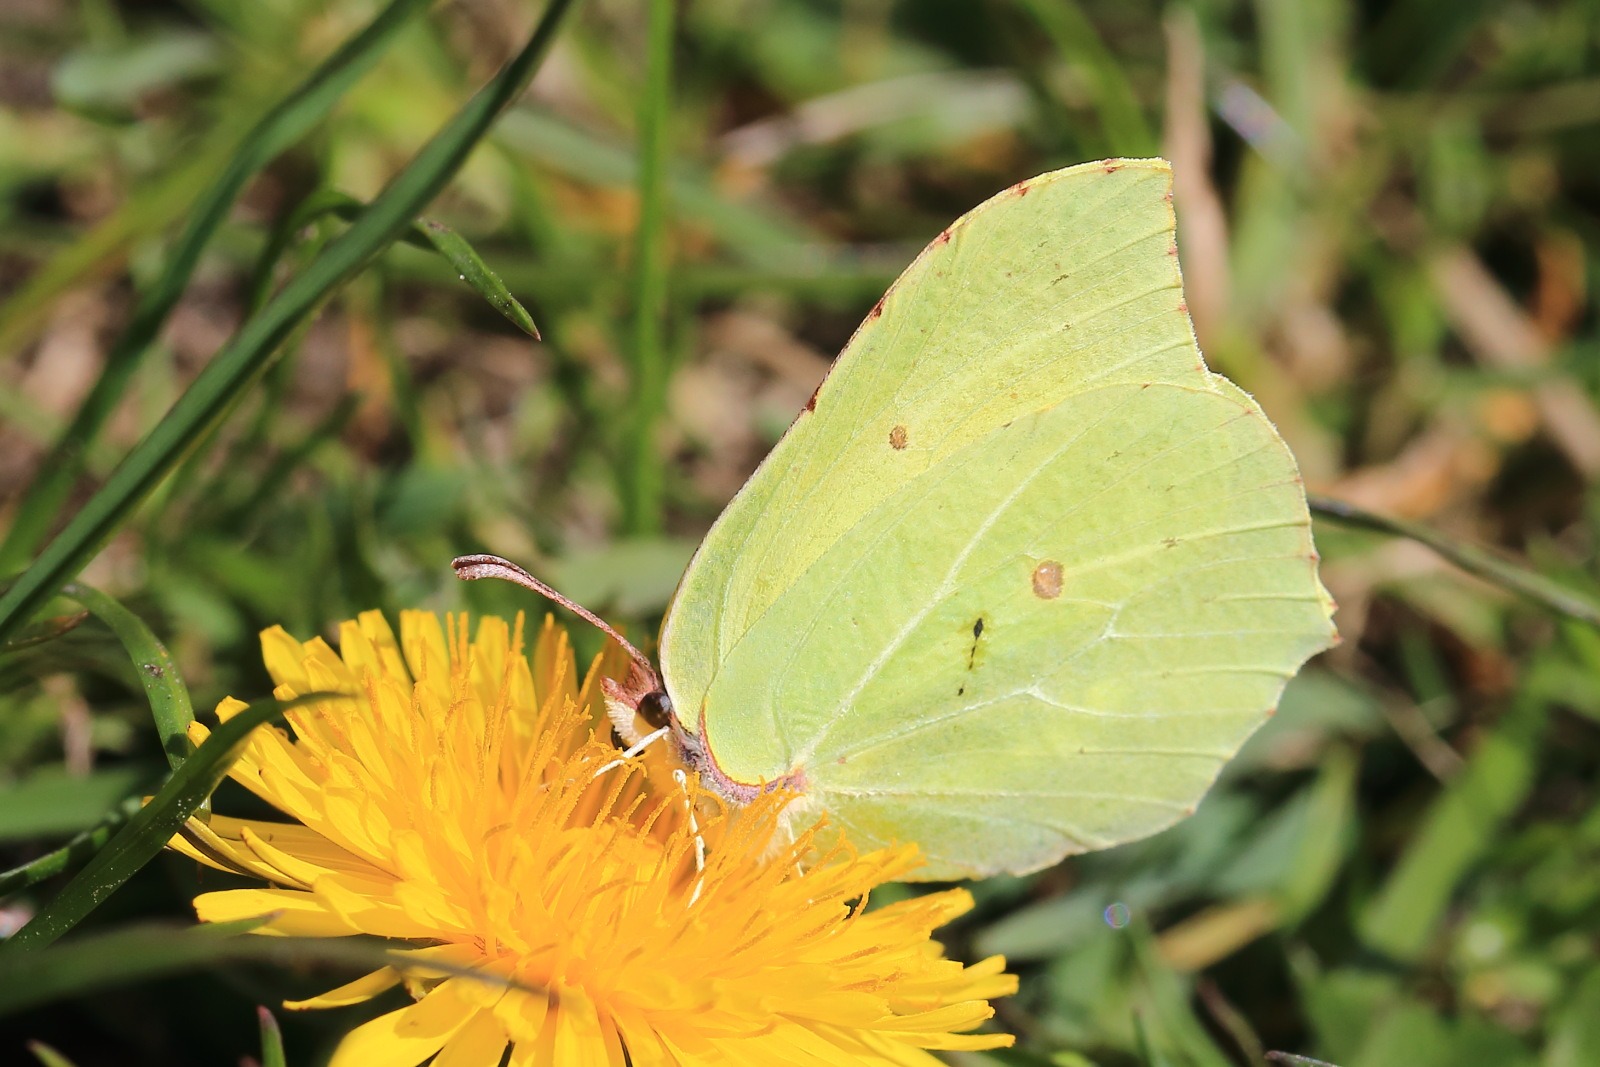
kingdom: Animalia
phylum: Arthropoda
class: Insecta
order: Lepidoptera
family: Pieridae
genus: Gonepteryx
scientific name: Gonepteryx rhamni
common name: Citronsommerfugl
